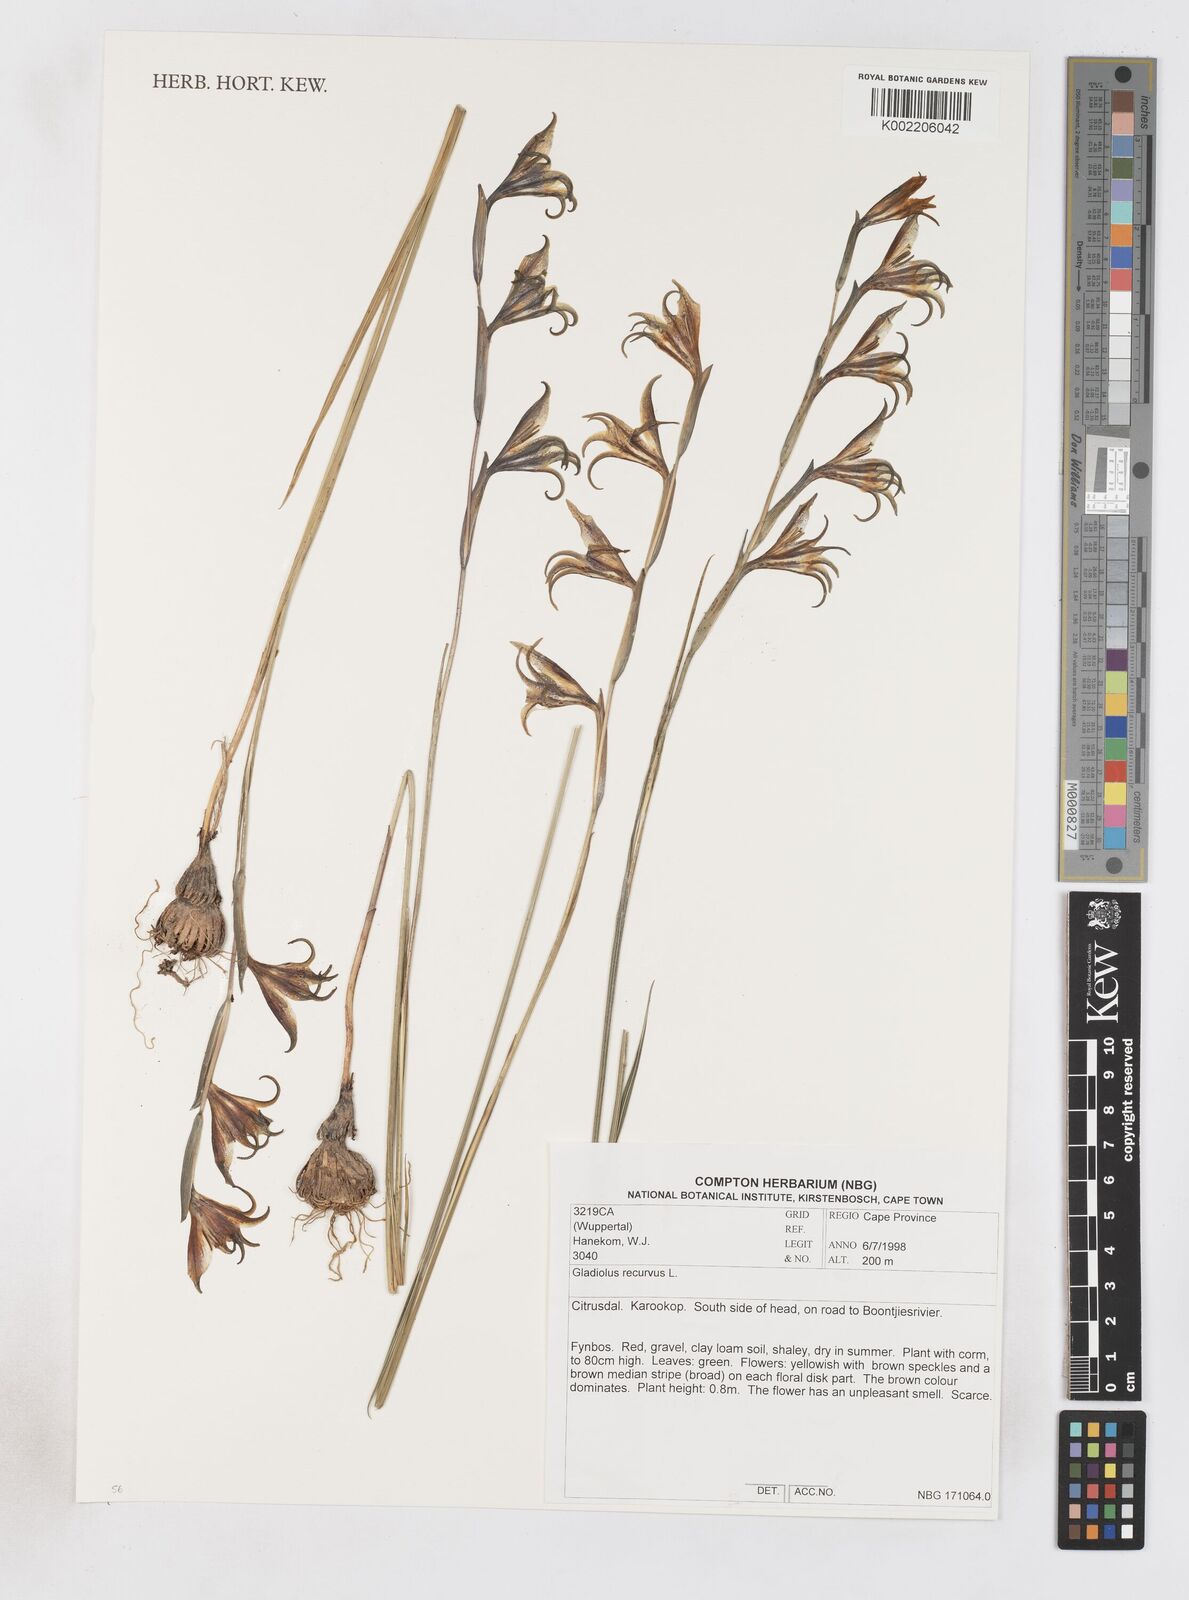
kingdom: Plantae
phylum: Tracheophyta
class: Liliopsida
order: Asparagales
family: Iridaceae
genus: Gladiolus
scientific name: Gladiolus recurvus
